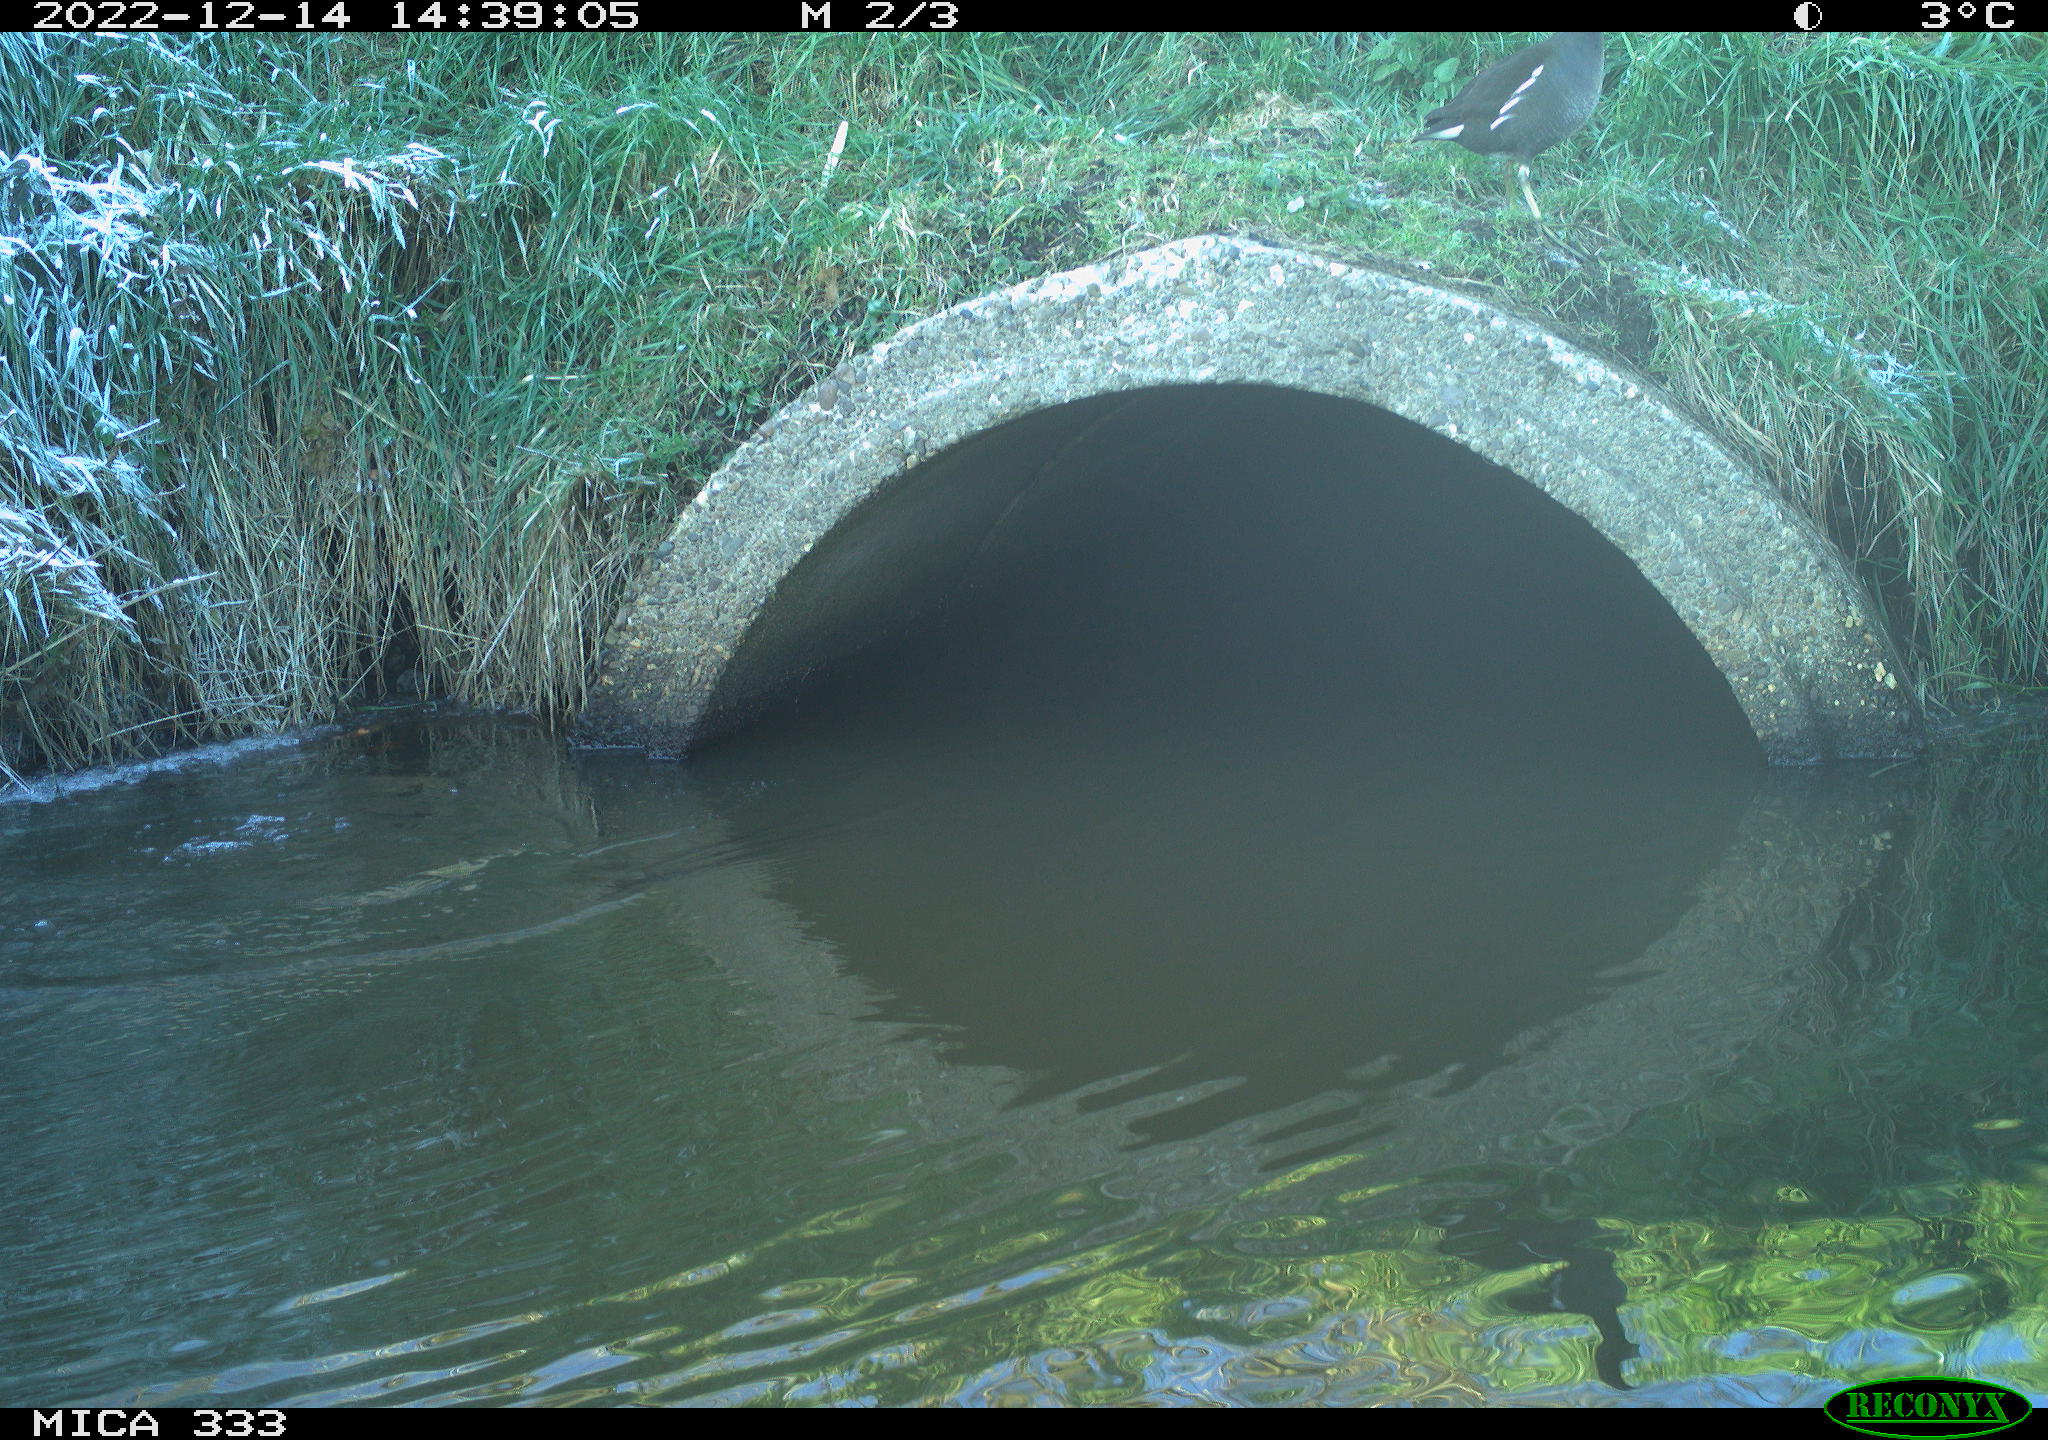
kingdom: Animalia
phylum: Chordata
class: Aves
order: Gruiformes
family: Rallidae
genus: Gallinula
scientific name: Gallinula chloropus
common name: Common moorhen
